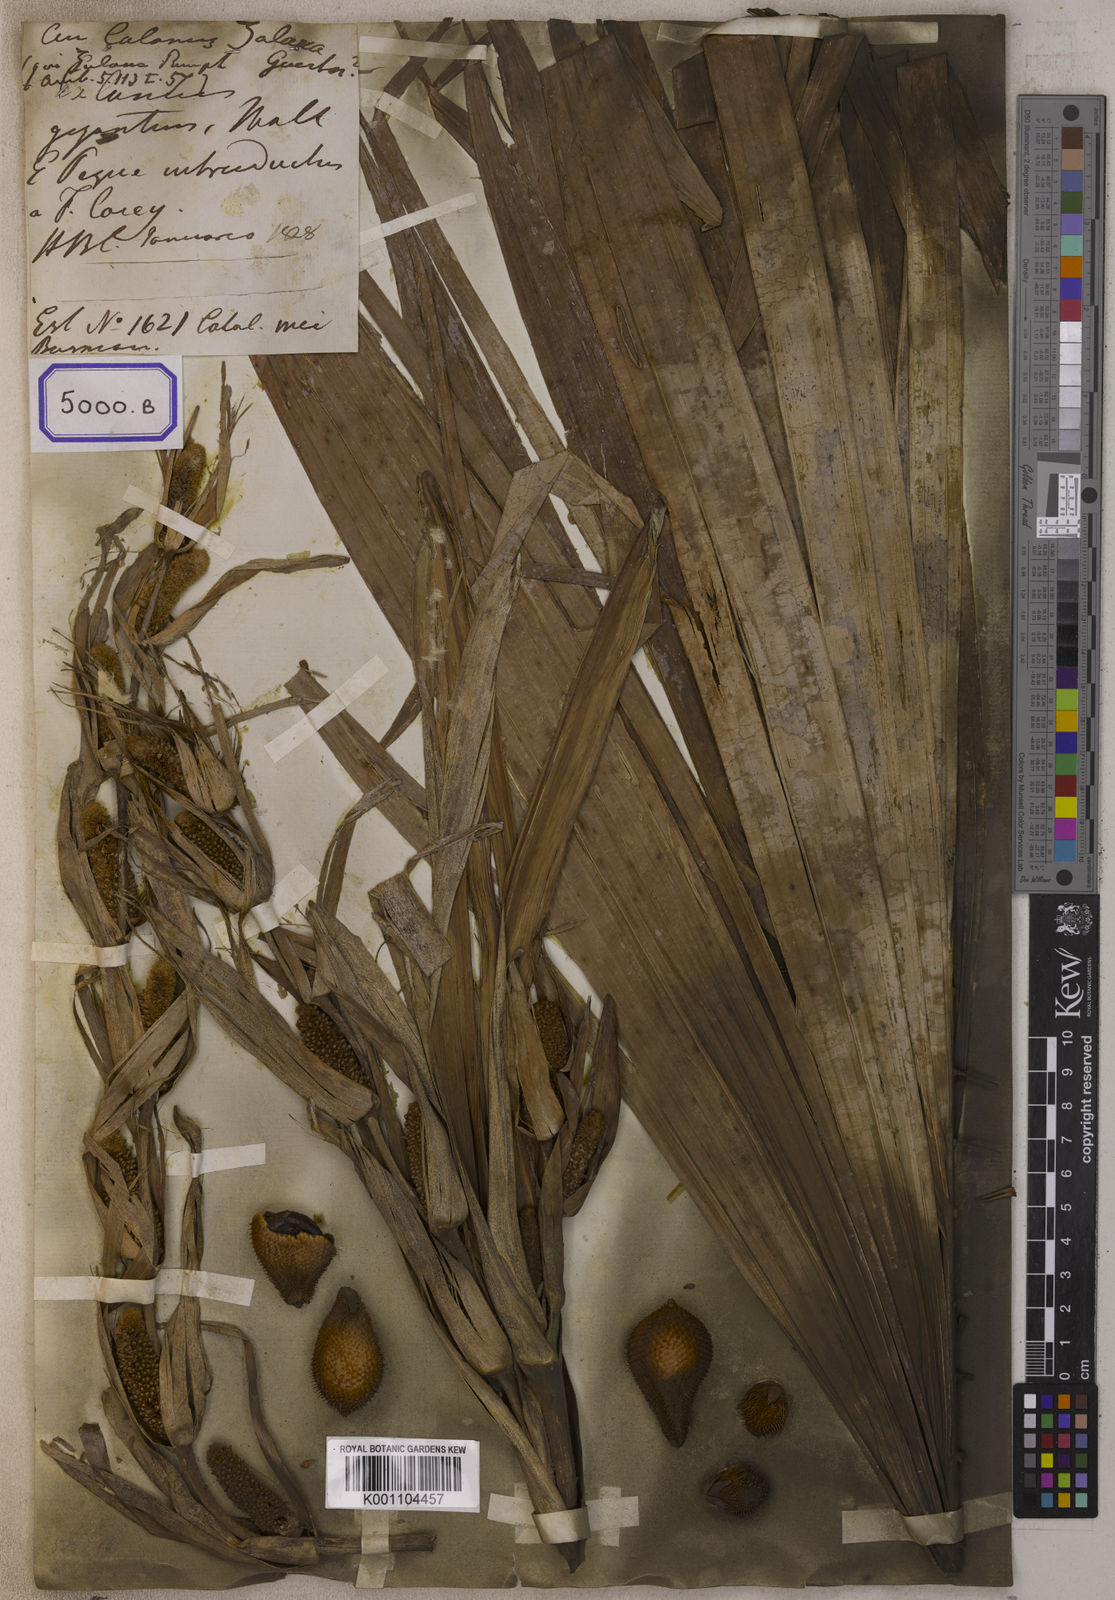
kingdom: Plantae
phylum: Tracheophyta
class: Liliopsida
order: Arecales
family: Arecaceae
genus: Salacca
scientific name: Salacca zalacca
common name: Salak
